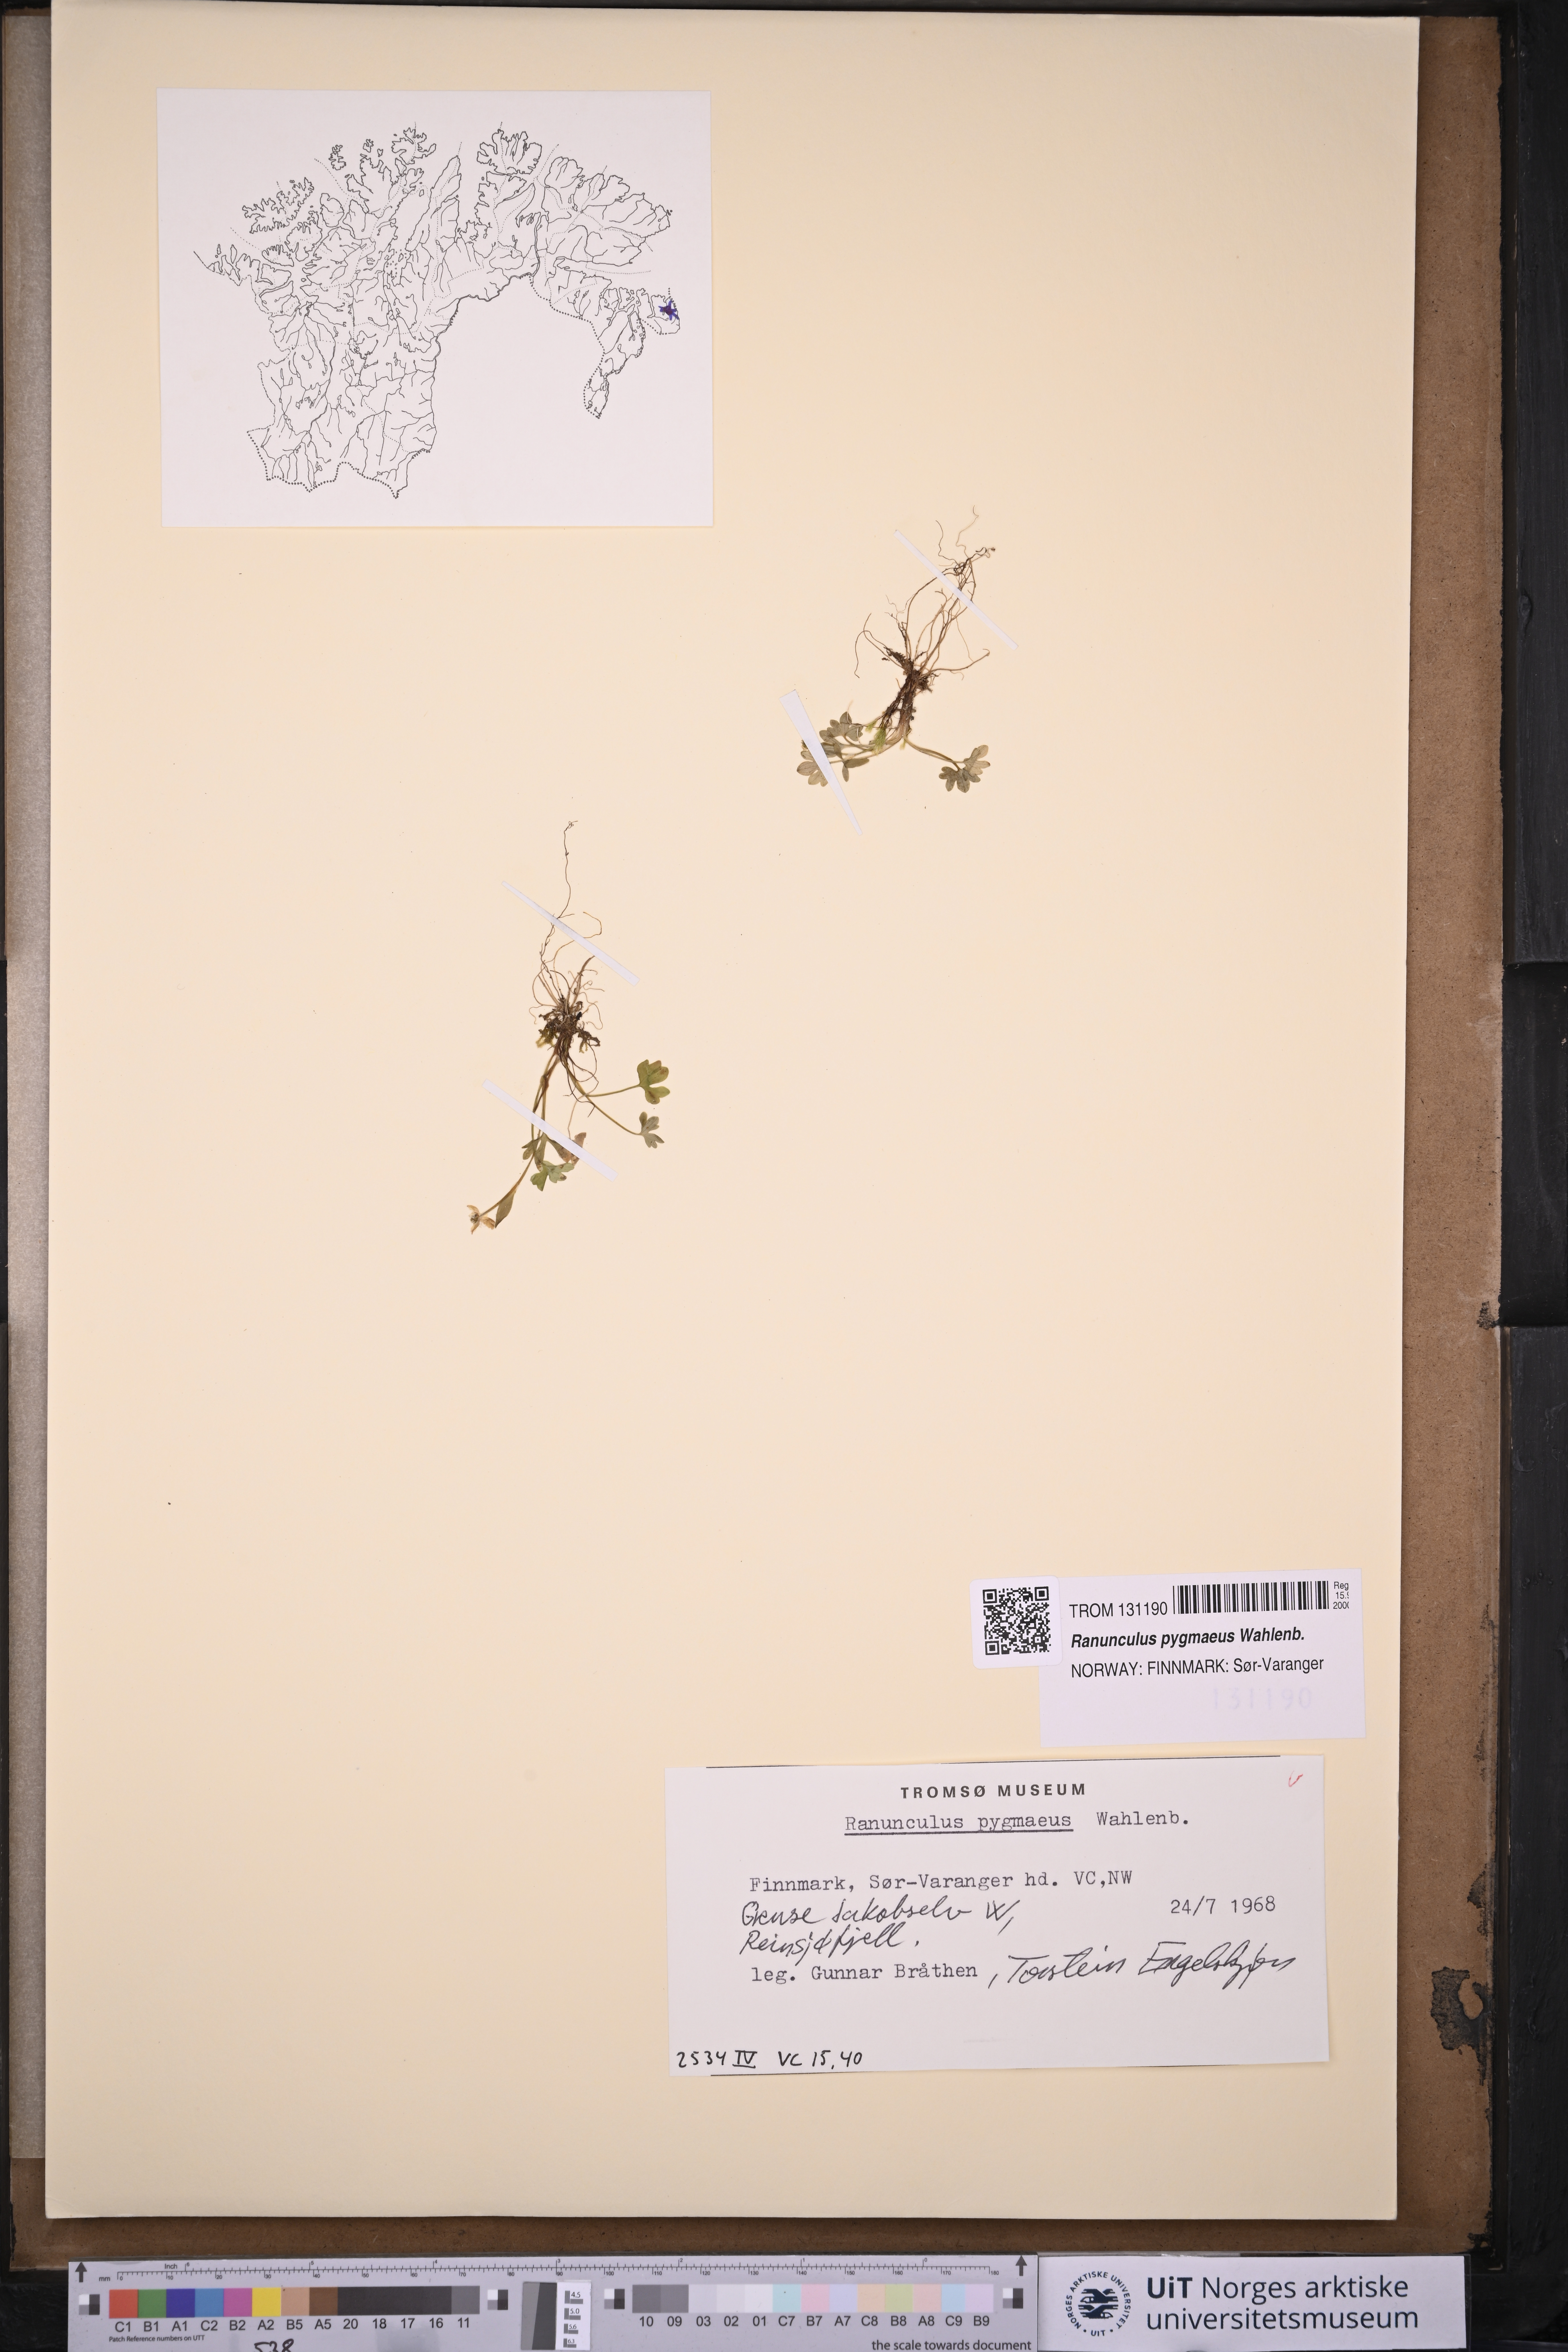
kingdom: Plantae
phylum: Tracheophyta
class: Magnoliopsida
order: Ranunculales
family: Ranunculaceae
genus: Ranunculus
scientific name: Ranunculus pygmaeus
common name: Dwarf buttercup
